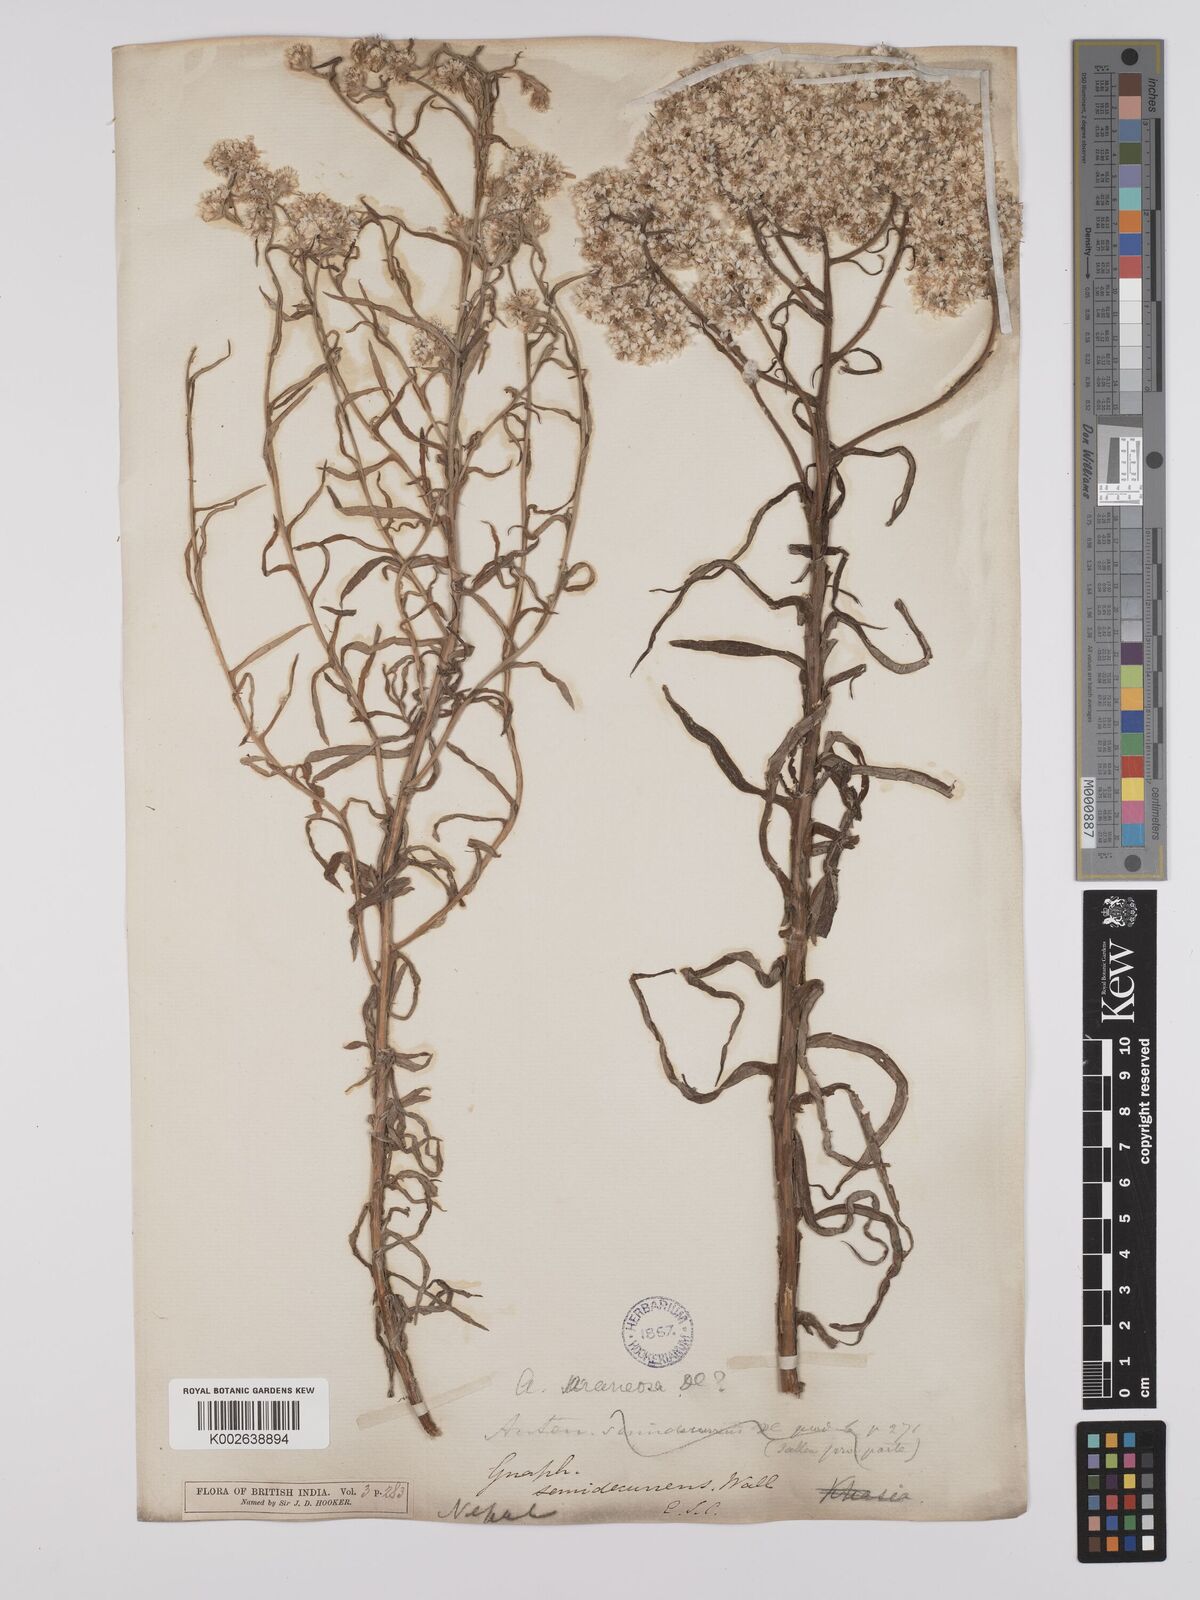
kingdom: Plantae
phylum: Tracheophyta
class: Magnoliopsida
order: Asterales
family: Asteraceae
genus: Anaphalis
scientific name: Anaphalis busua
